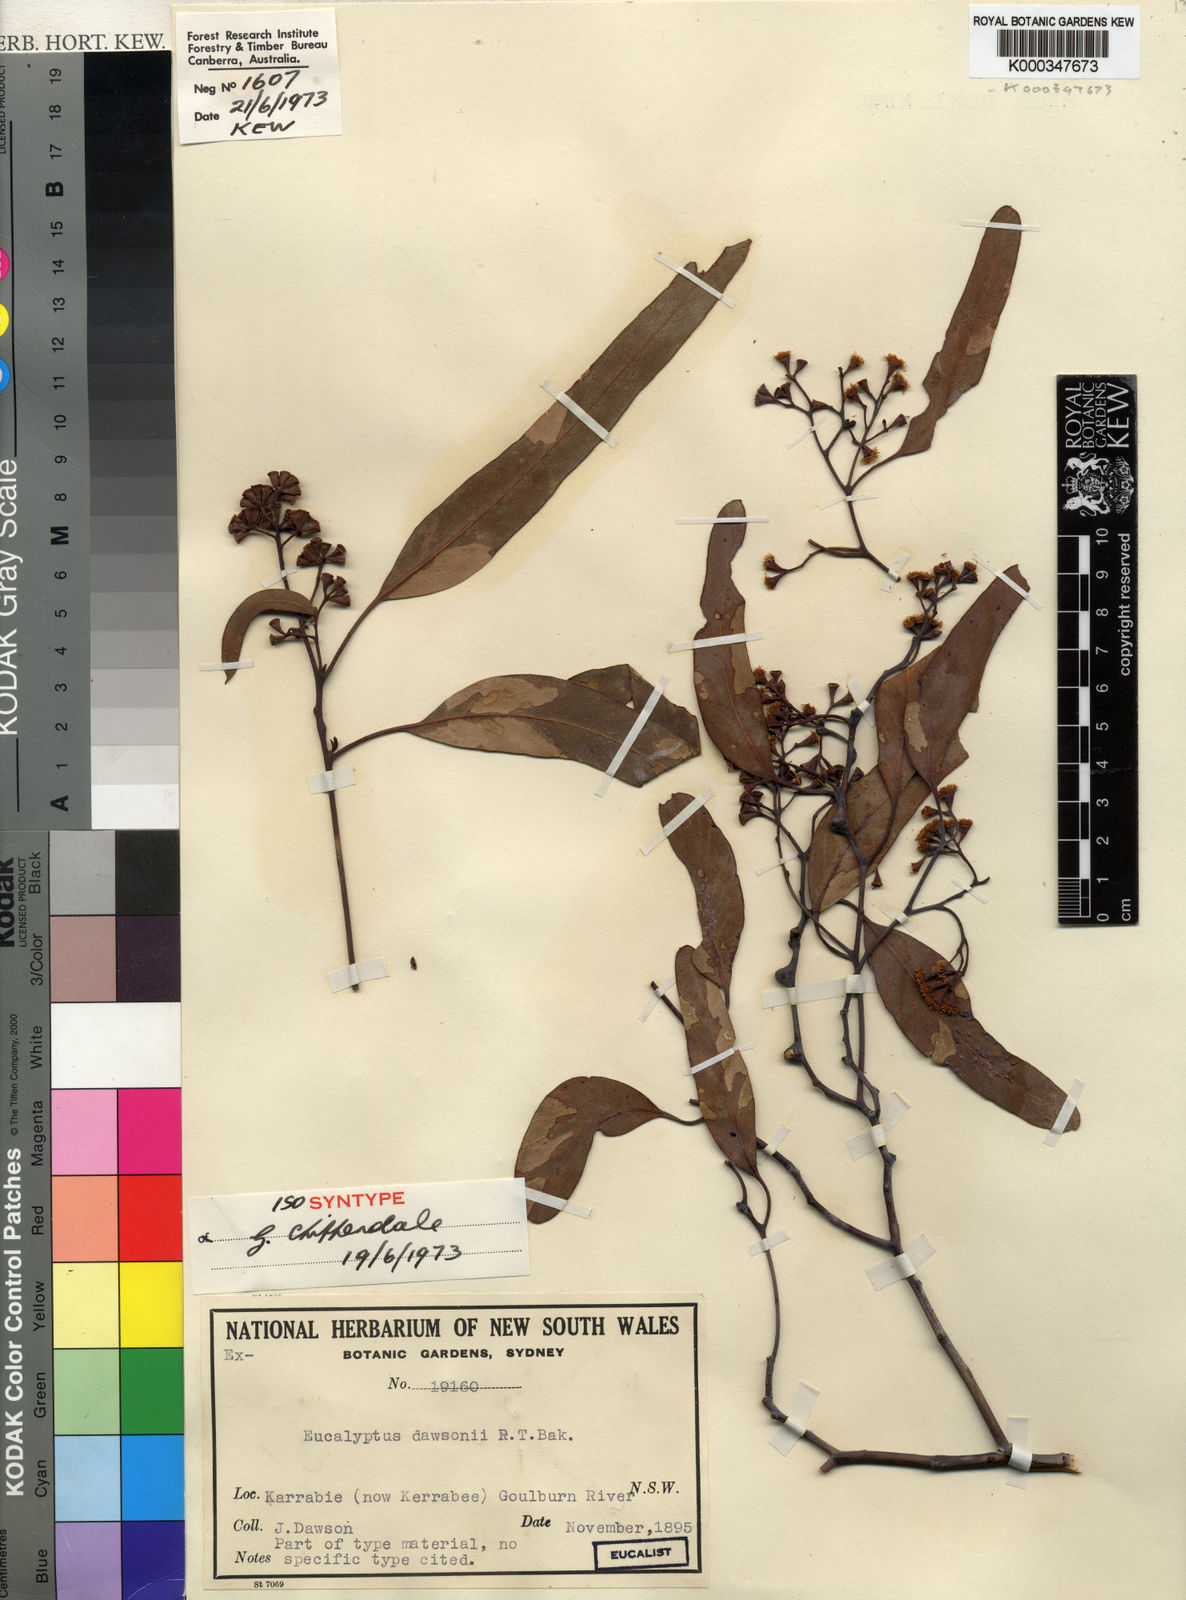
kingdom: Plantae
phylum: Tracheophyta
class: Magnoliopsida
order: Myrtales
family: Myrtaceae
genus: Eucalyptus
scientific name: Eucalyptus dawsonii
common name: Slaty-box
